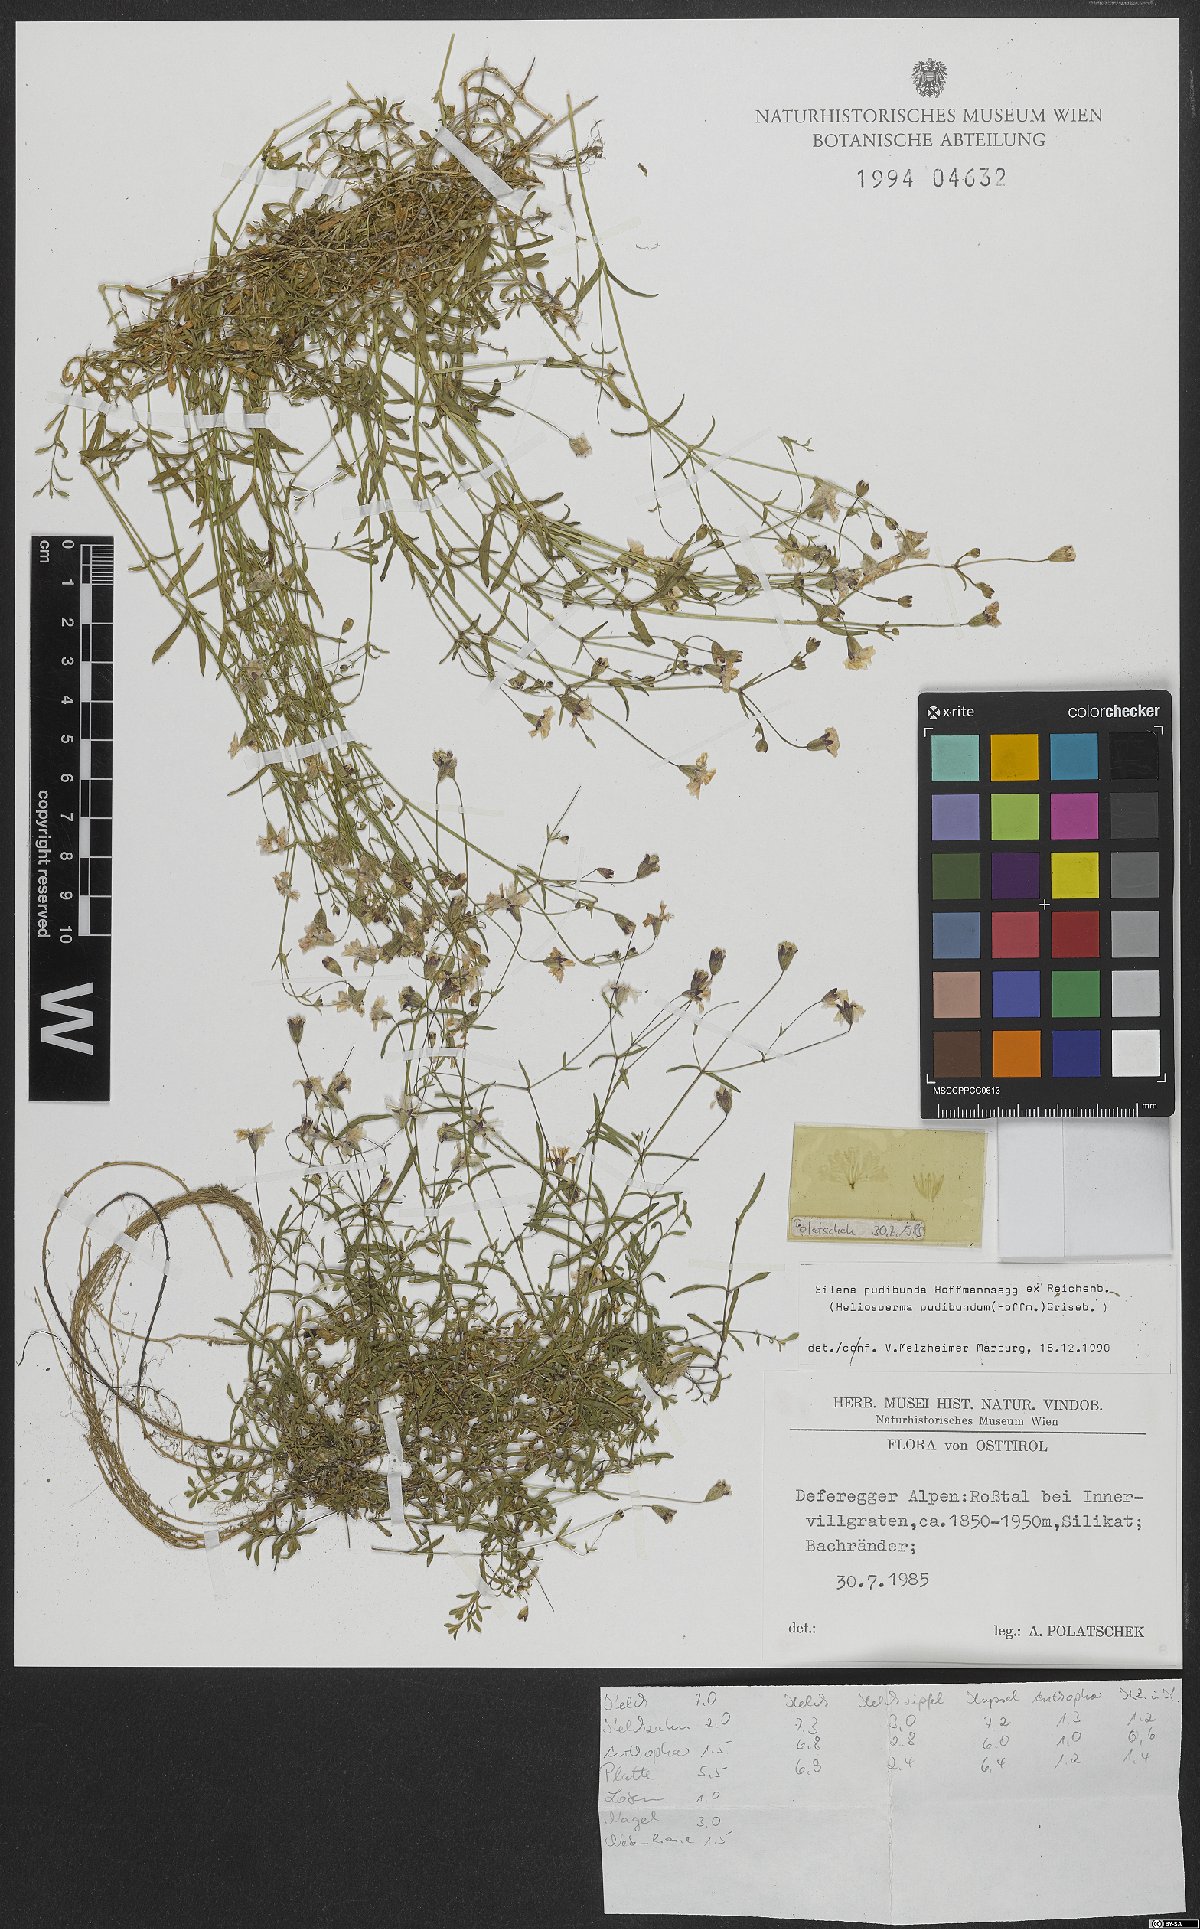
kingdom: Plantae
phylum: Tracheophyta
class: Magnoliopsida
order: Caryophyllales
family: Caryophyllaceae
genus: Heliosperma
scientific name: Heliosperma pudibundum
